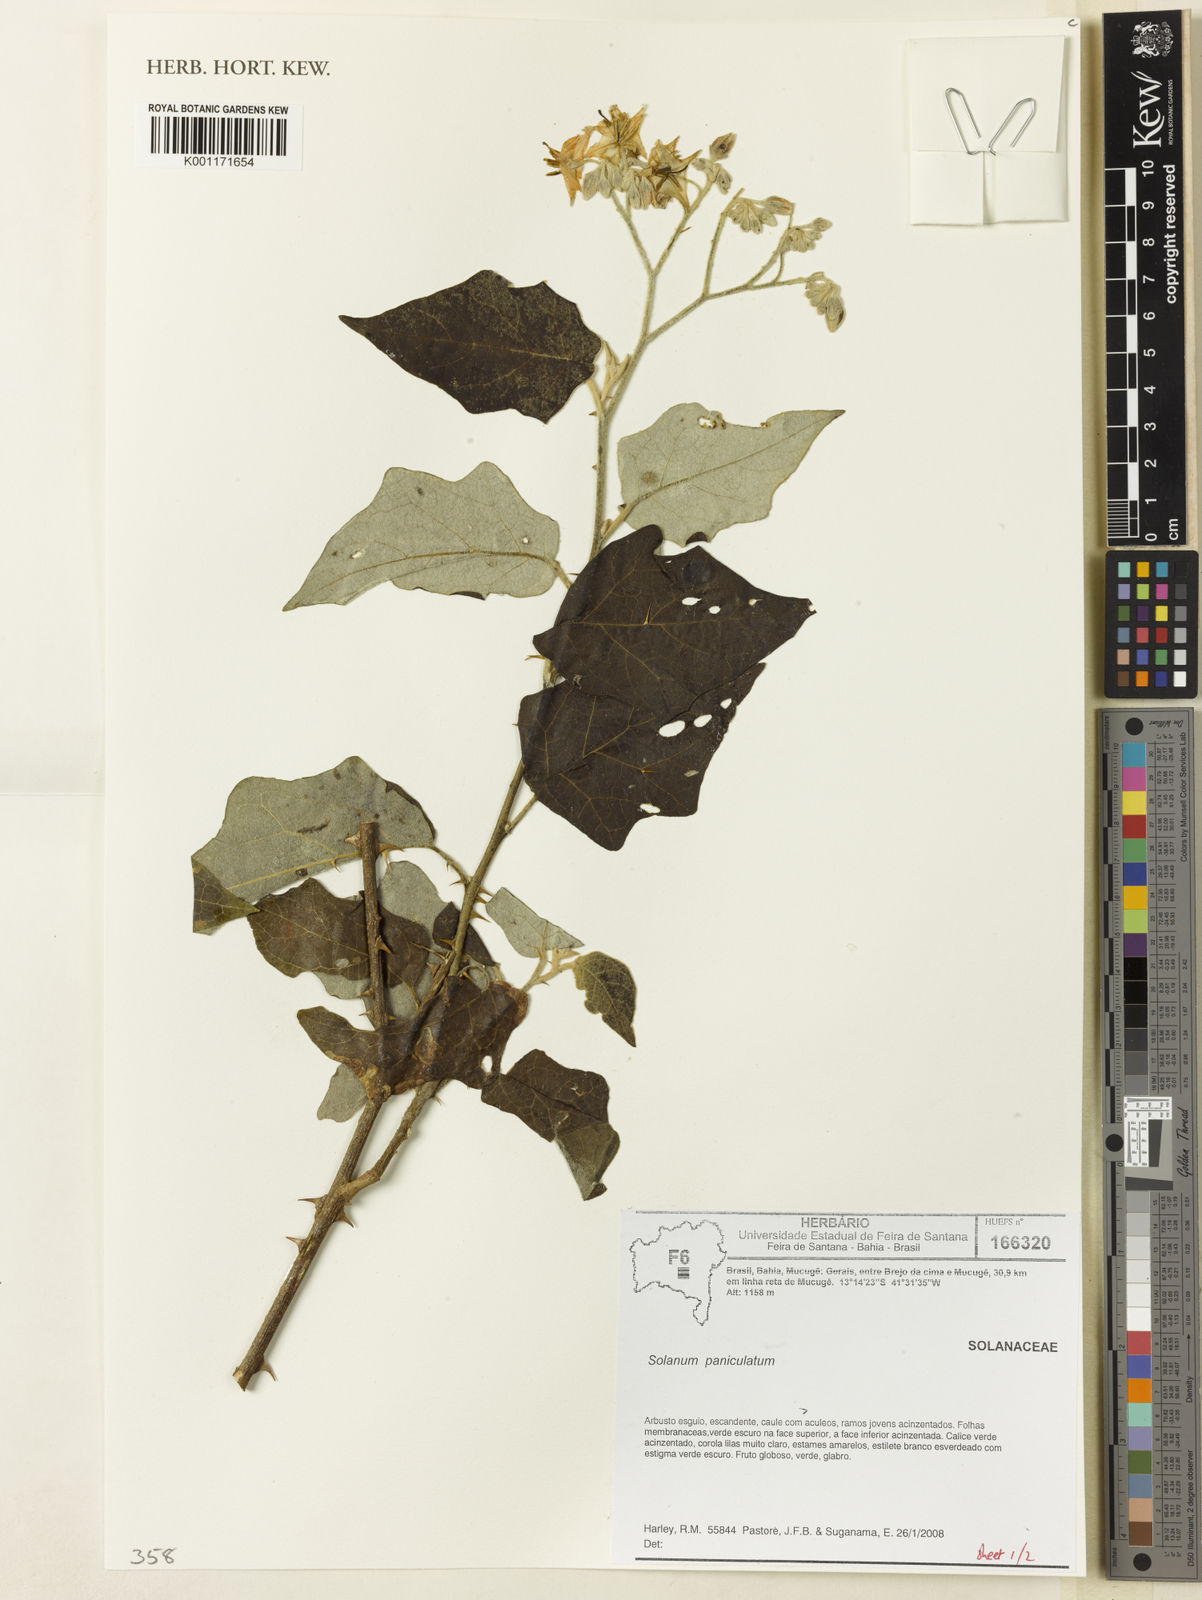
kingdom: Plantae
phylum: Tracheophyta
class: Magnoliopsida
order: Solanales
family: Solanaceae
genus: Solanum
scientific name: Solanum paniculatum
